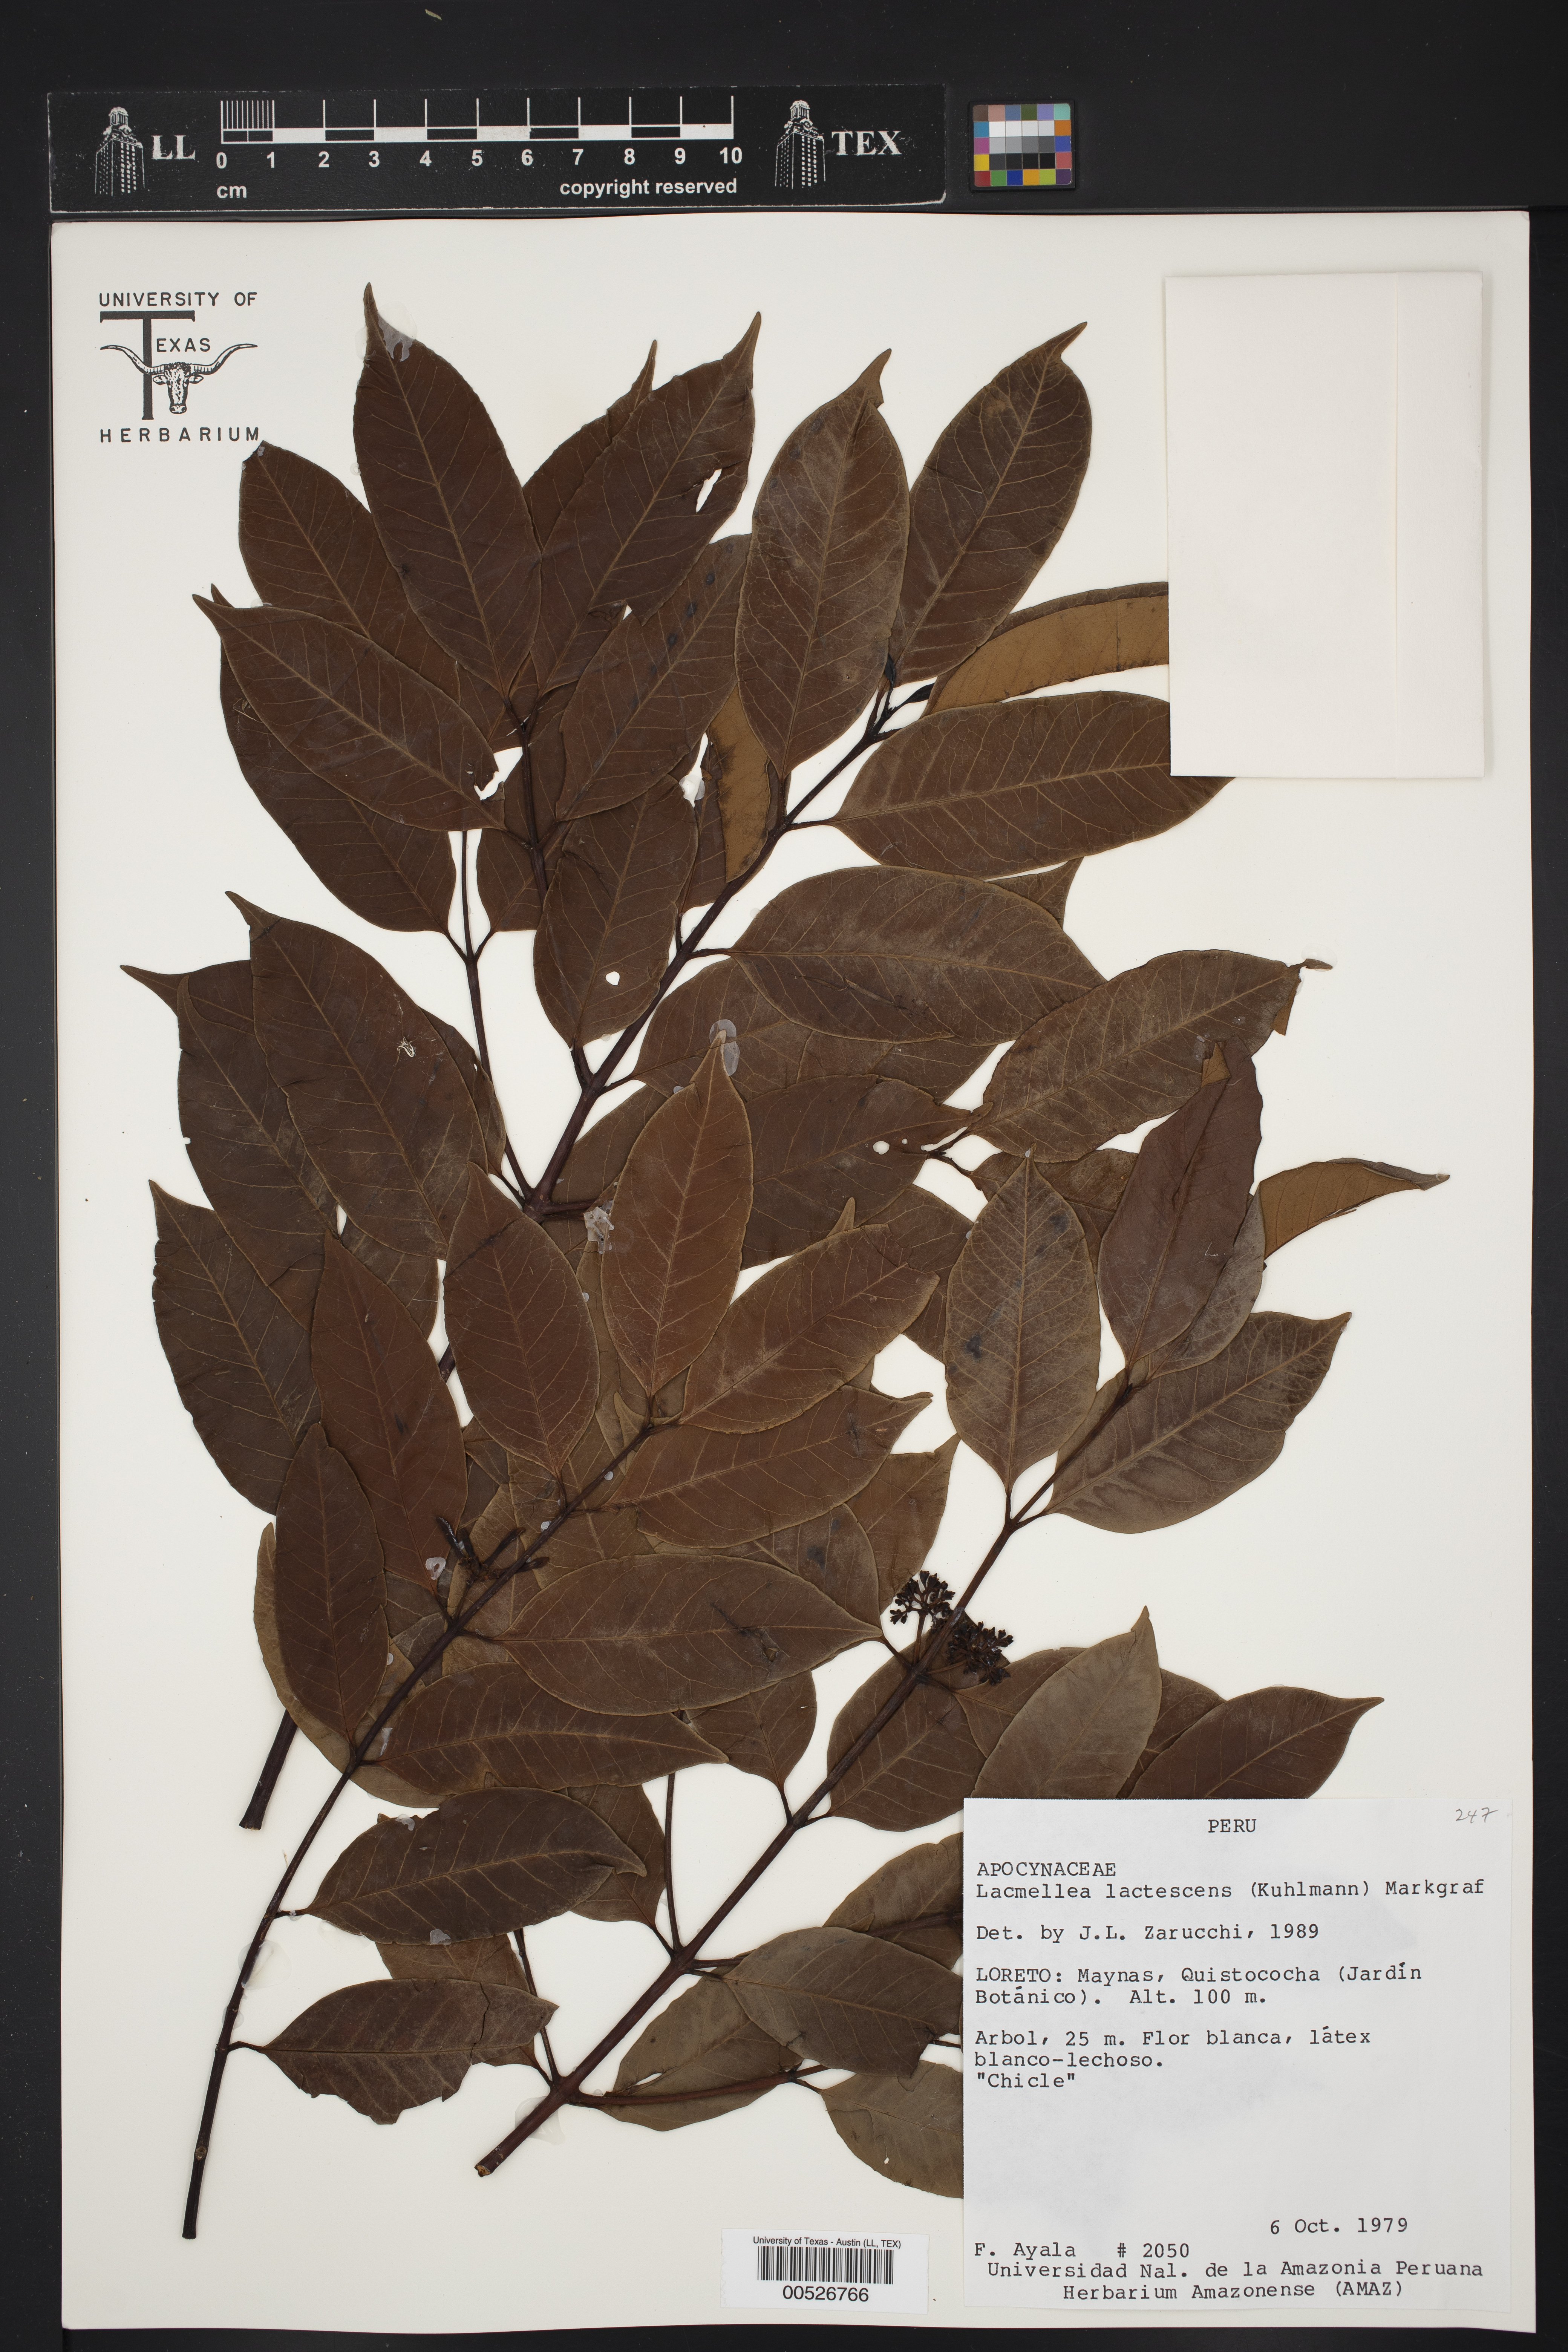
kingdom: Plantae
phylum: Tracheophyta
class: Magnoliopsida
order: Gentianales
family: Apocynaceae
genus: Lacmellea
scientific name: Lacmellea edulis
